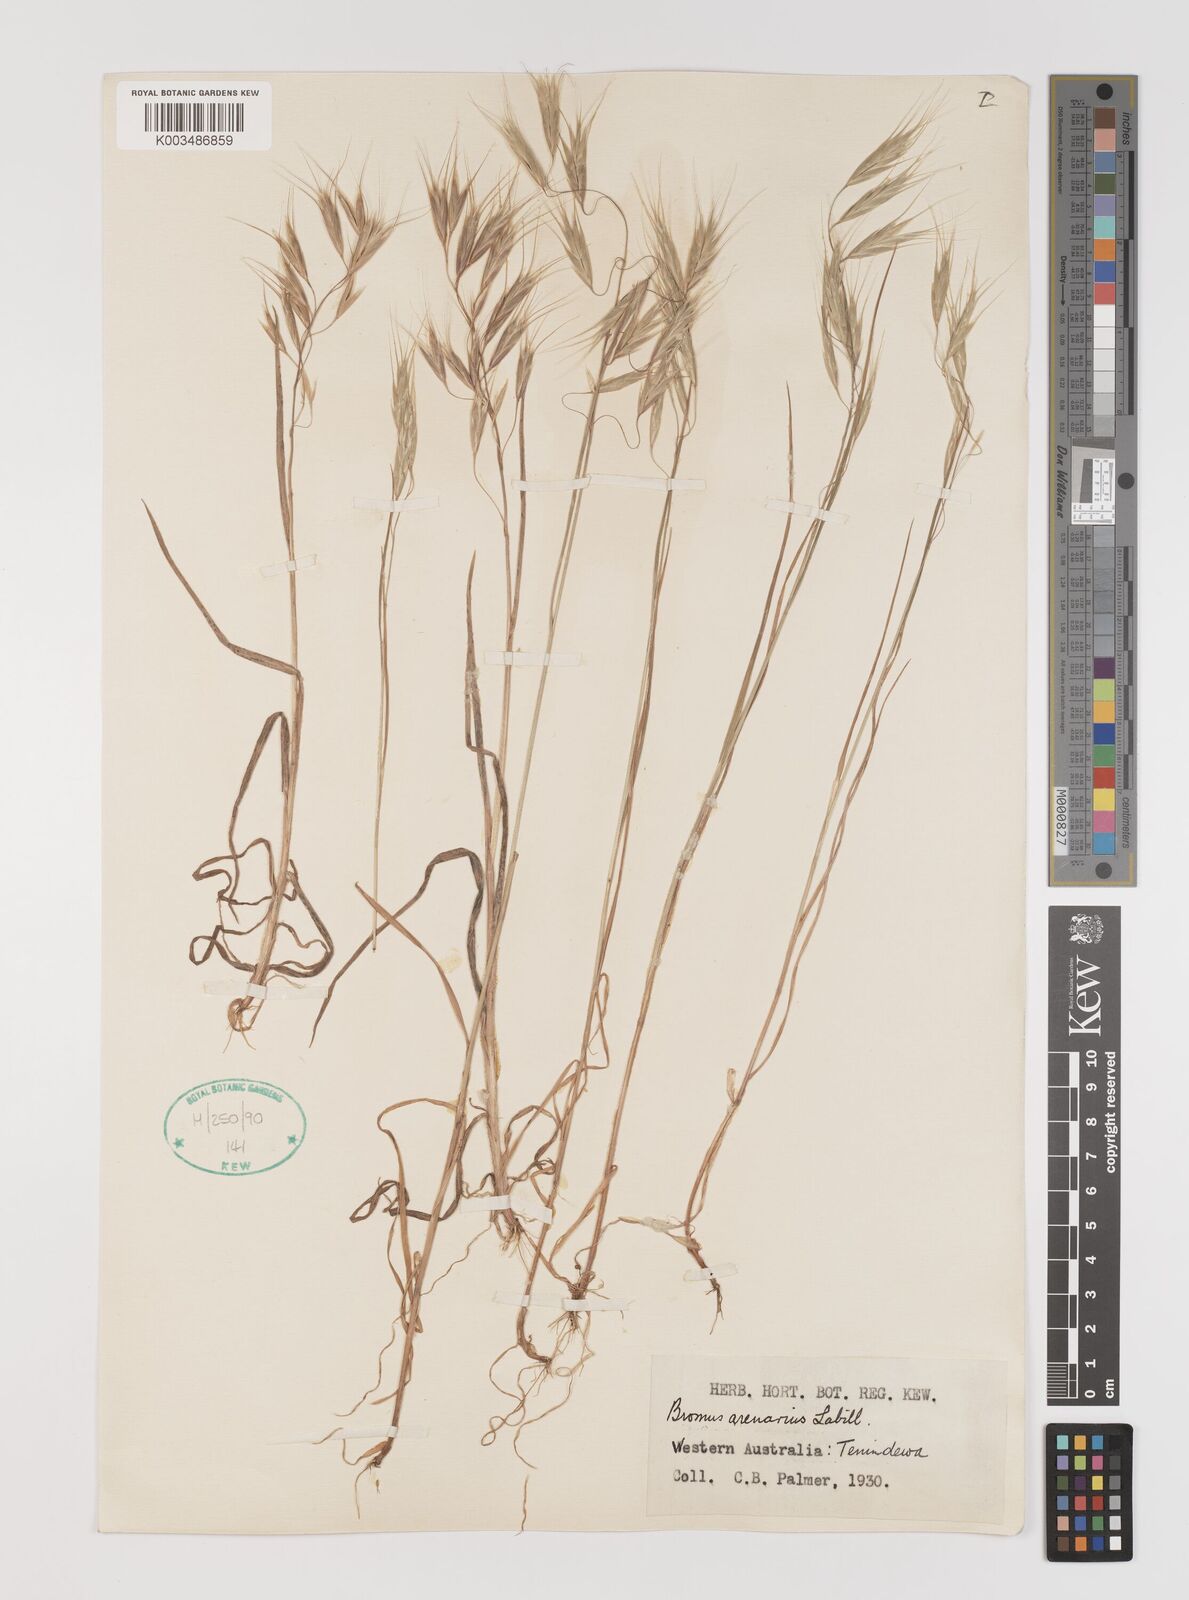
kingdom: Plantae
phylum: Tracheophyta
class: Liliopsida
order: Poales
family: Poaceae
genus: Bromus
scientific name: Bromus arenarius
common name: Australian brome
